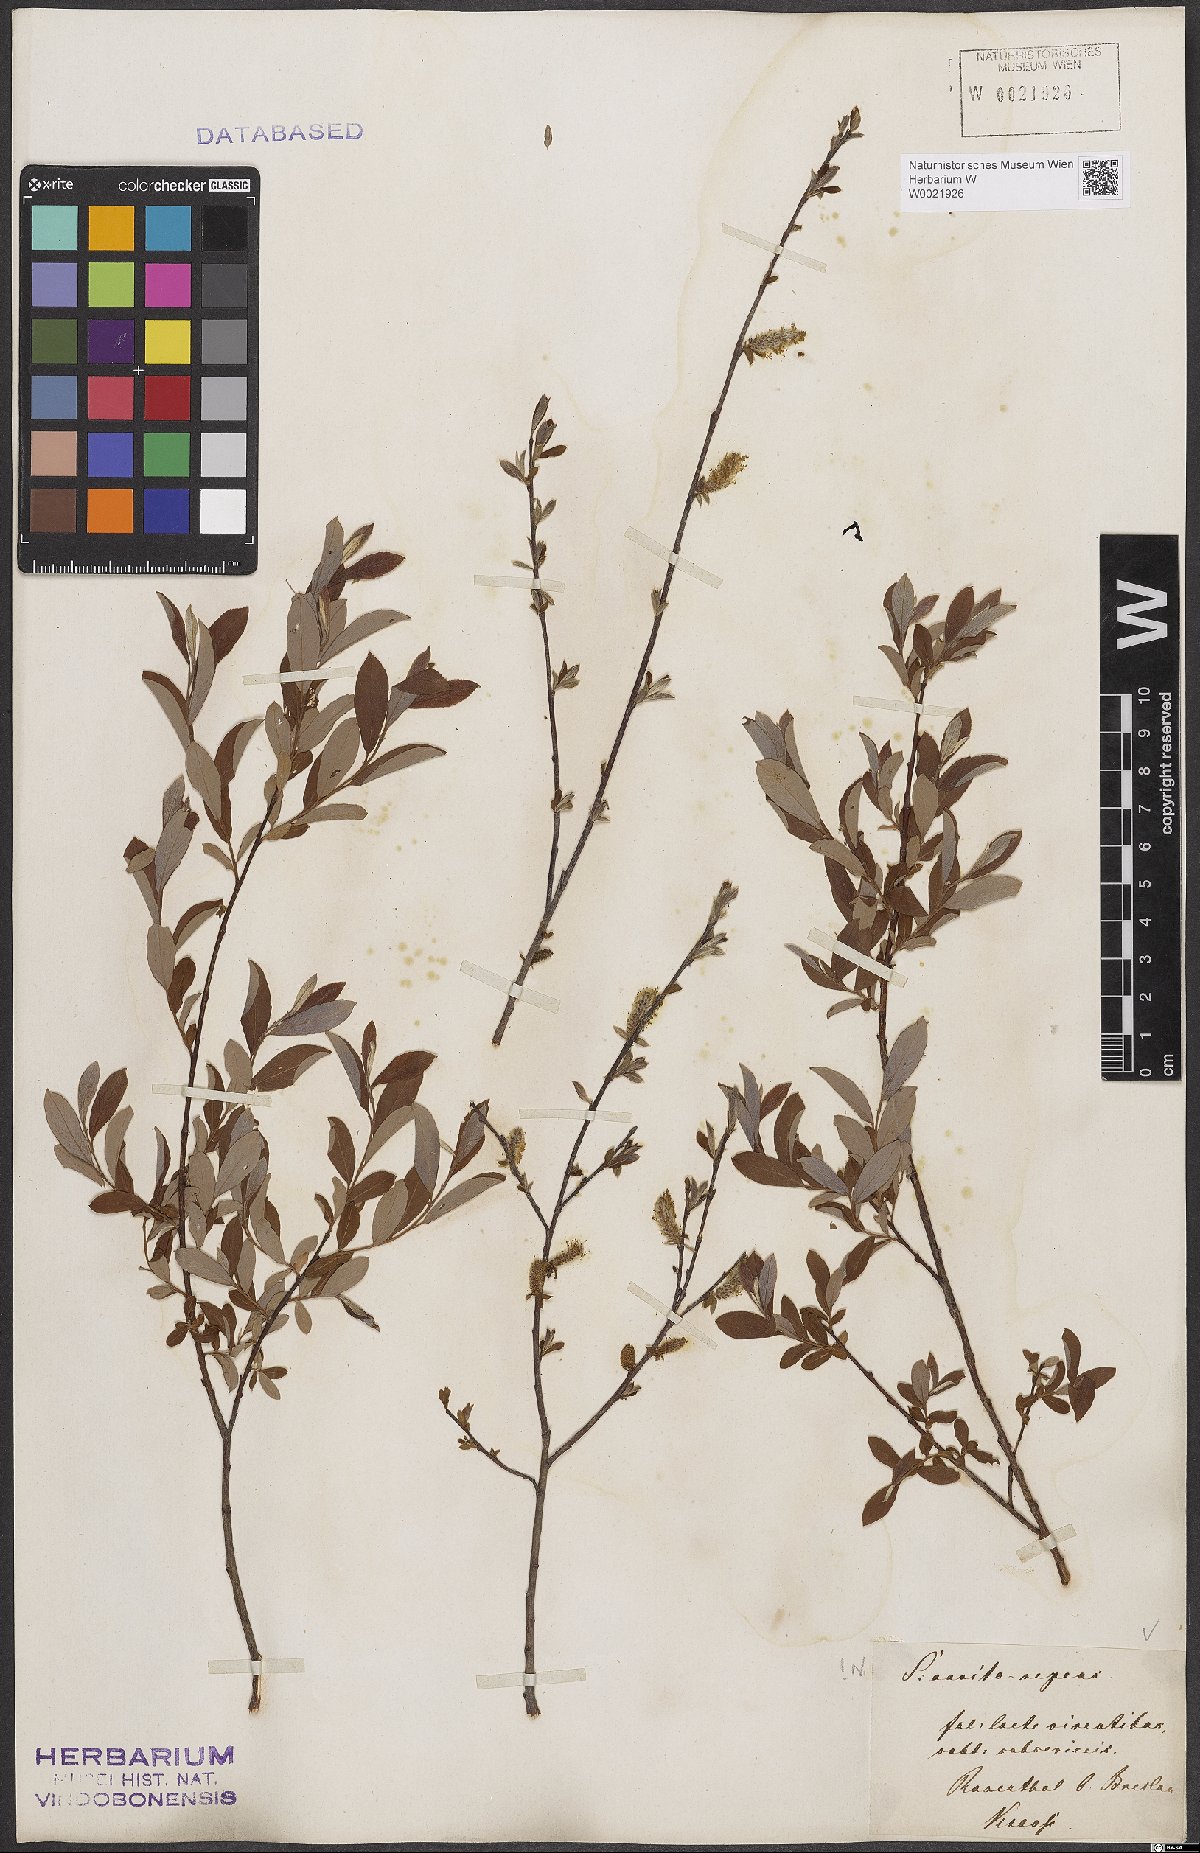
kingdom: Plantae
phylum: Tracheophyta
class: Magnoliopsida
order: Malpighiales
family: Salicaceae
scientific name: Salicaceae
